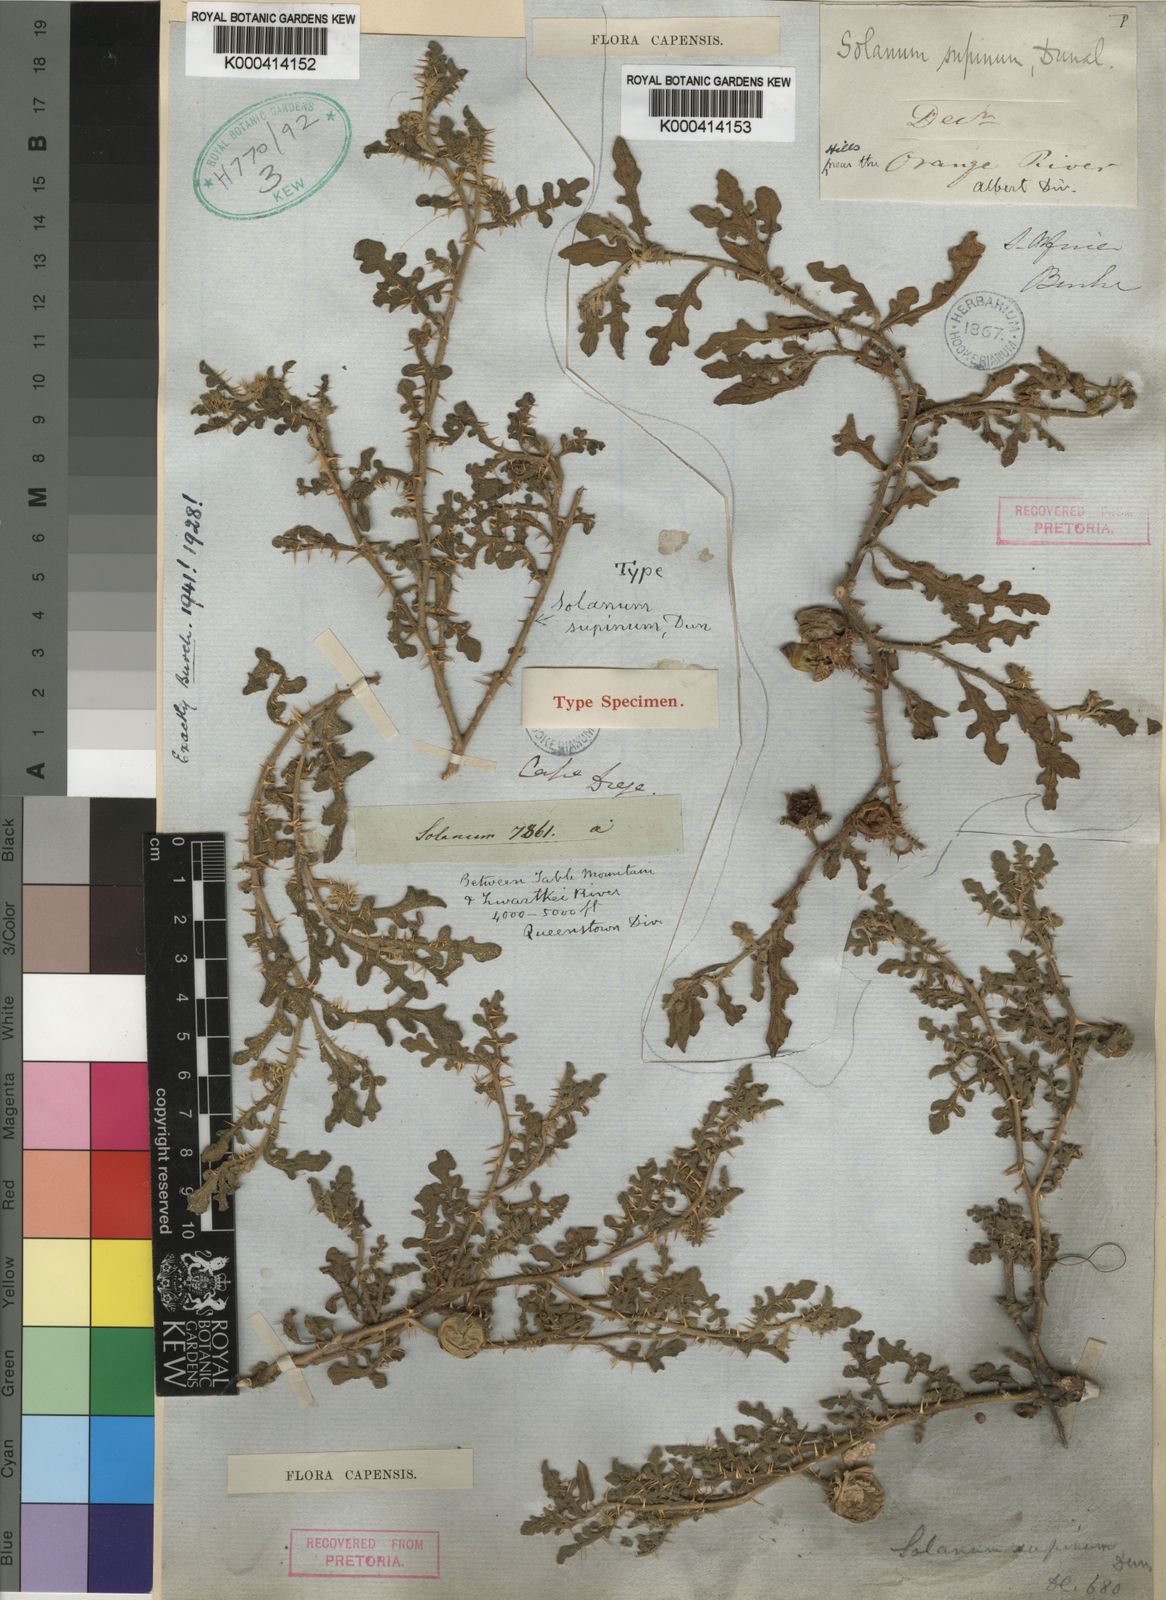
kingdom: Plantae
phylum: Tracheophyta
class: Magnoliopsida
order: Solanales
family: Solanaceae
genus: Solanum
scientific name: Solanum supinum
